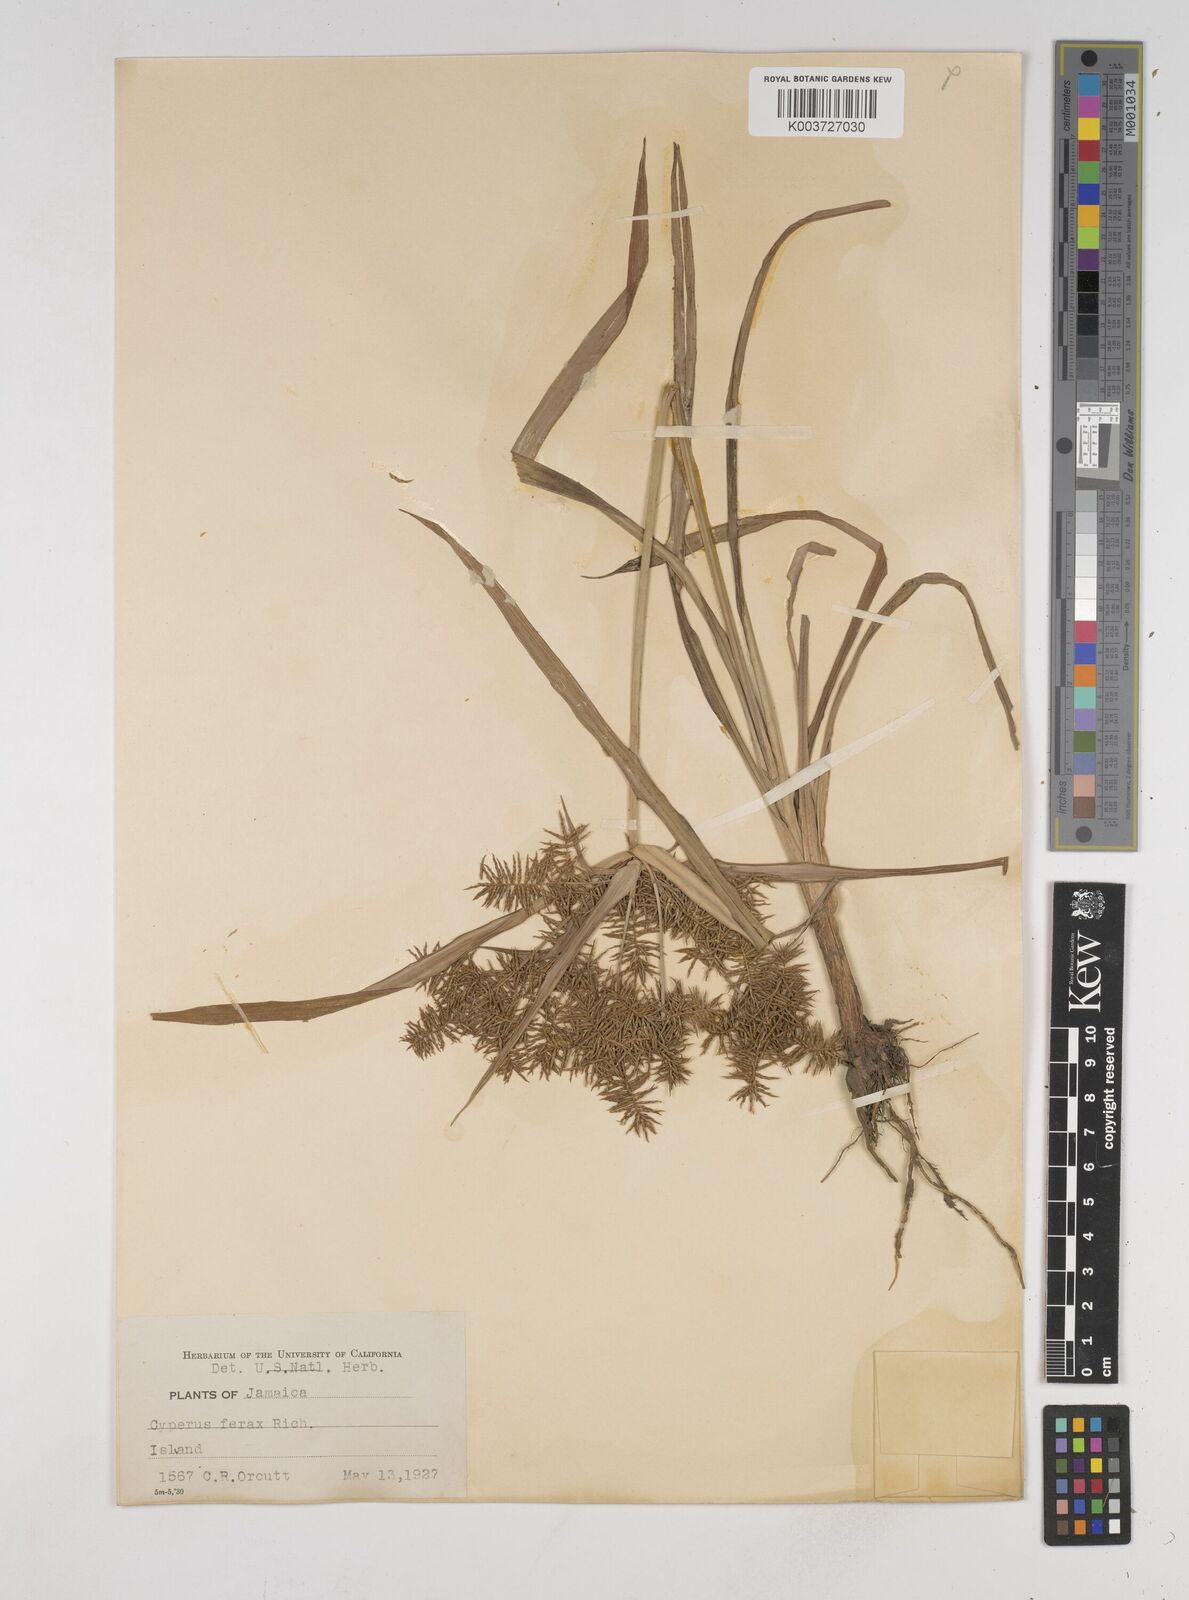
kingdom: Plantae
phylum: Tracheophyta
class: Liliopsida
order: Poales
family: Cyperaceae
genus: Cyperus
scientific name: Cyperus odoratus
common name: Fragrant flatsedge
